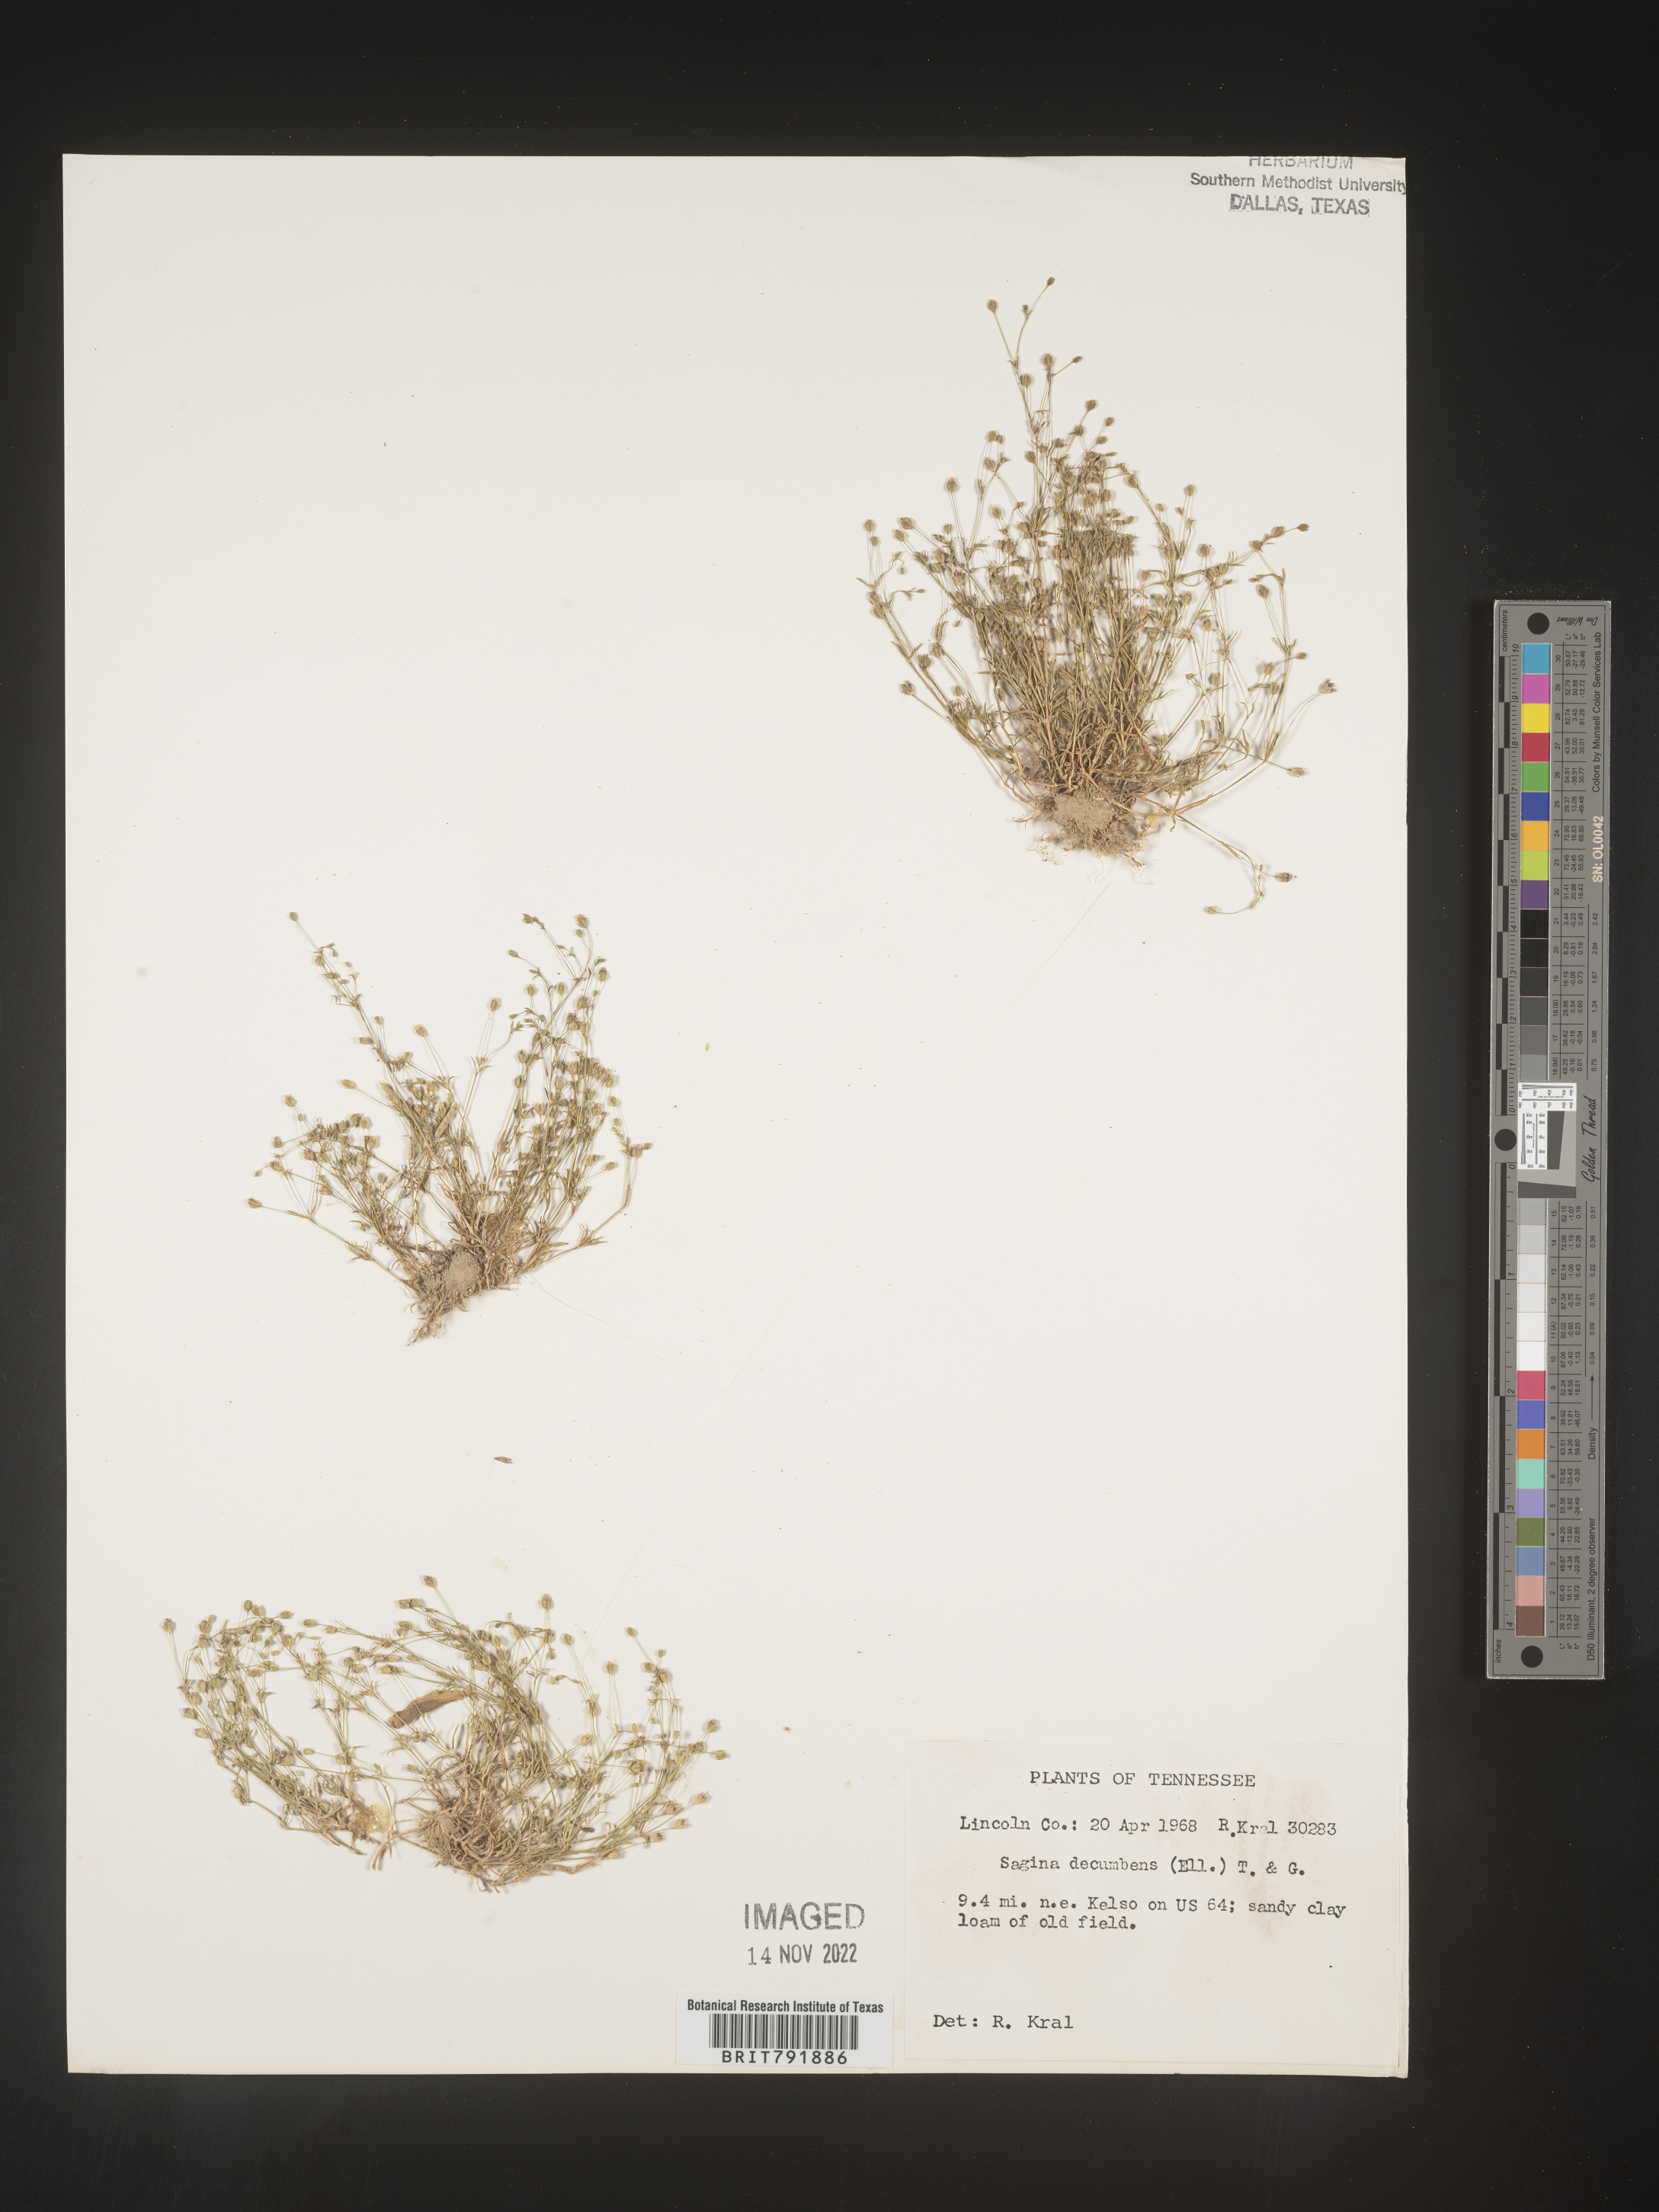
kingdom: Plantae
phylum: Tracheophyta
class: Magnoliopsida
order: Caryophyllales
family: Caryophyllaceae
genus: Sagina
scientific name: Sagina decumbens
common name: Decumbent pearlwort
